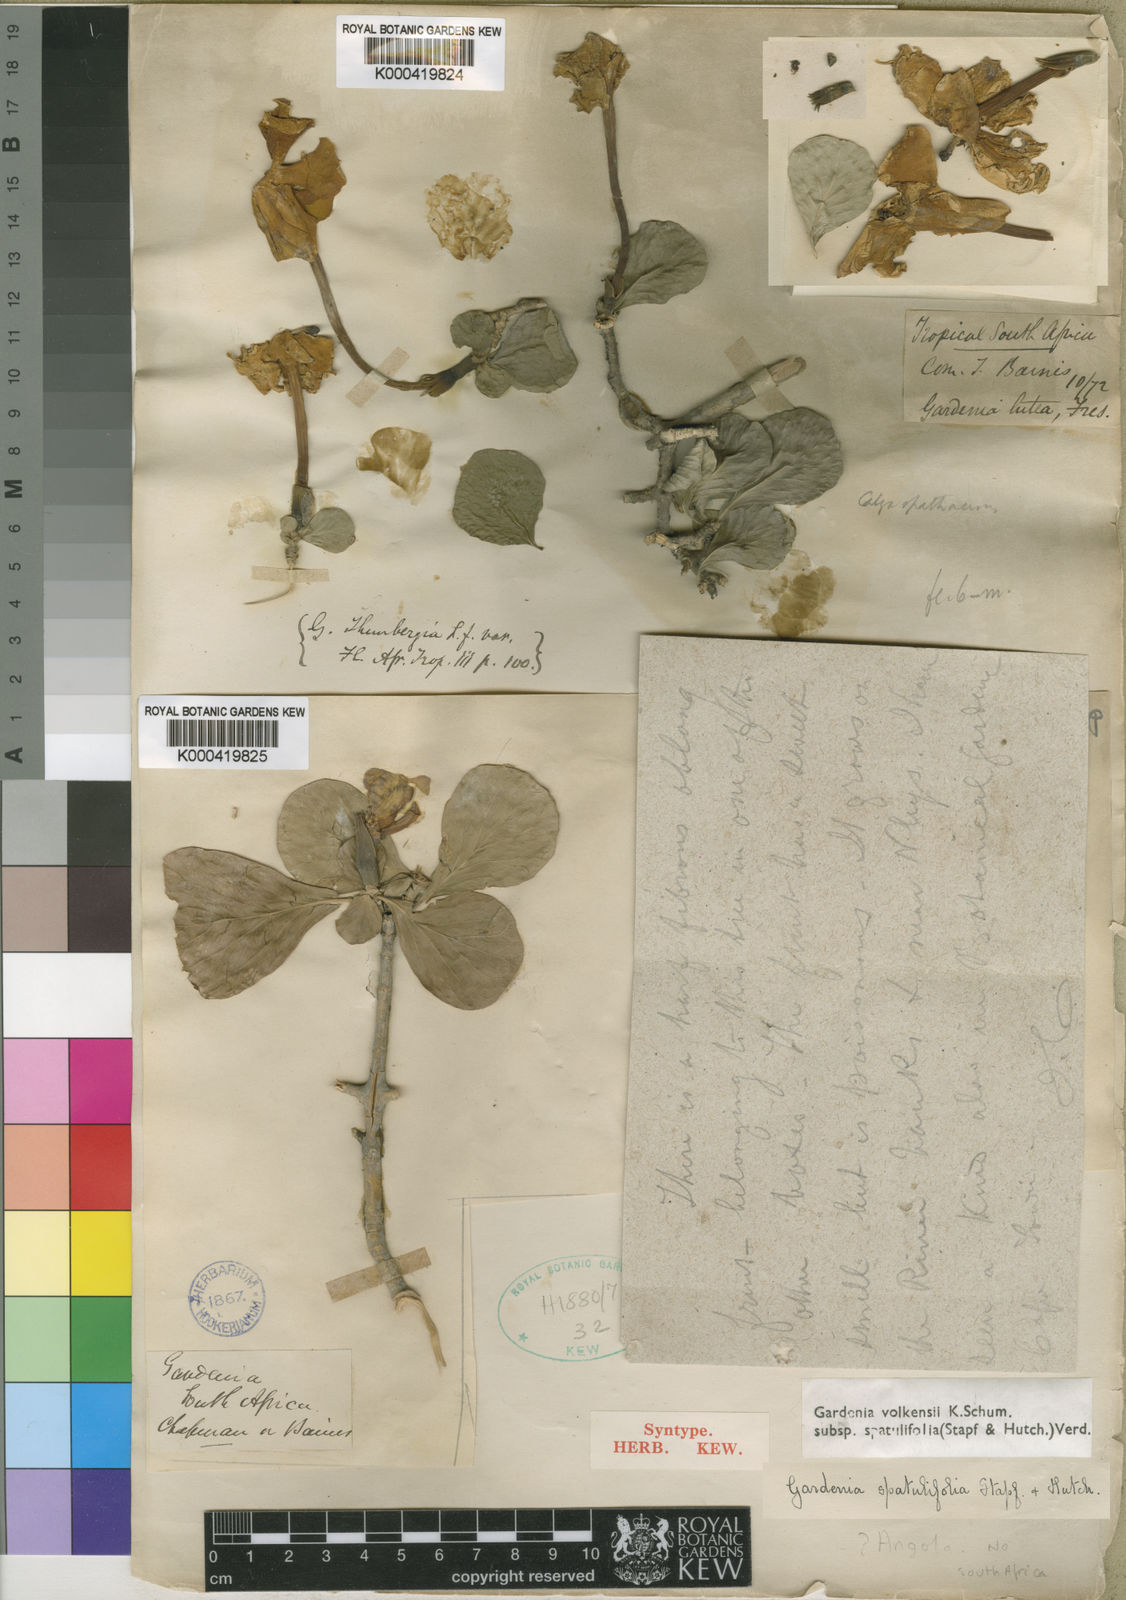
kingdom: Plantae
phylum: Tracheophyta
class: Magnoliopsida
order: Gentianales
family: Rubiaceae
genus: Gardenia
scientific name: Gardenia volkensii
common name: Common gardenia
